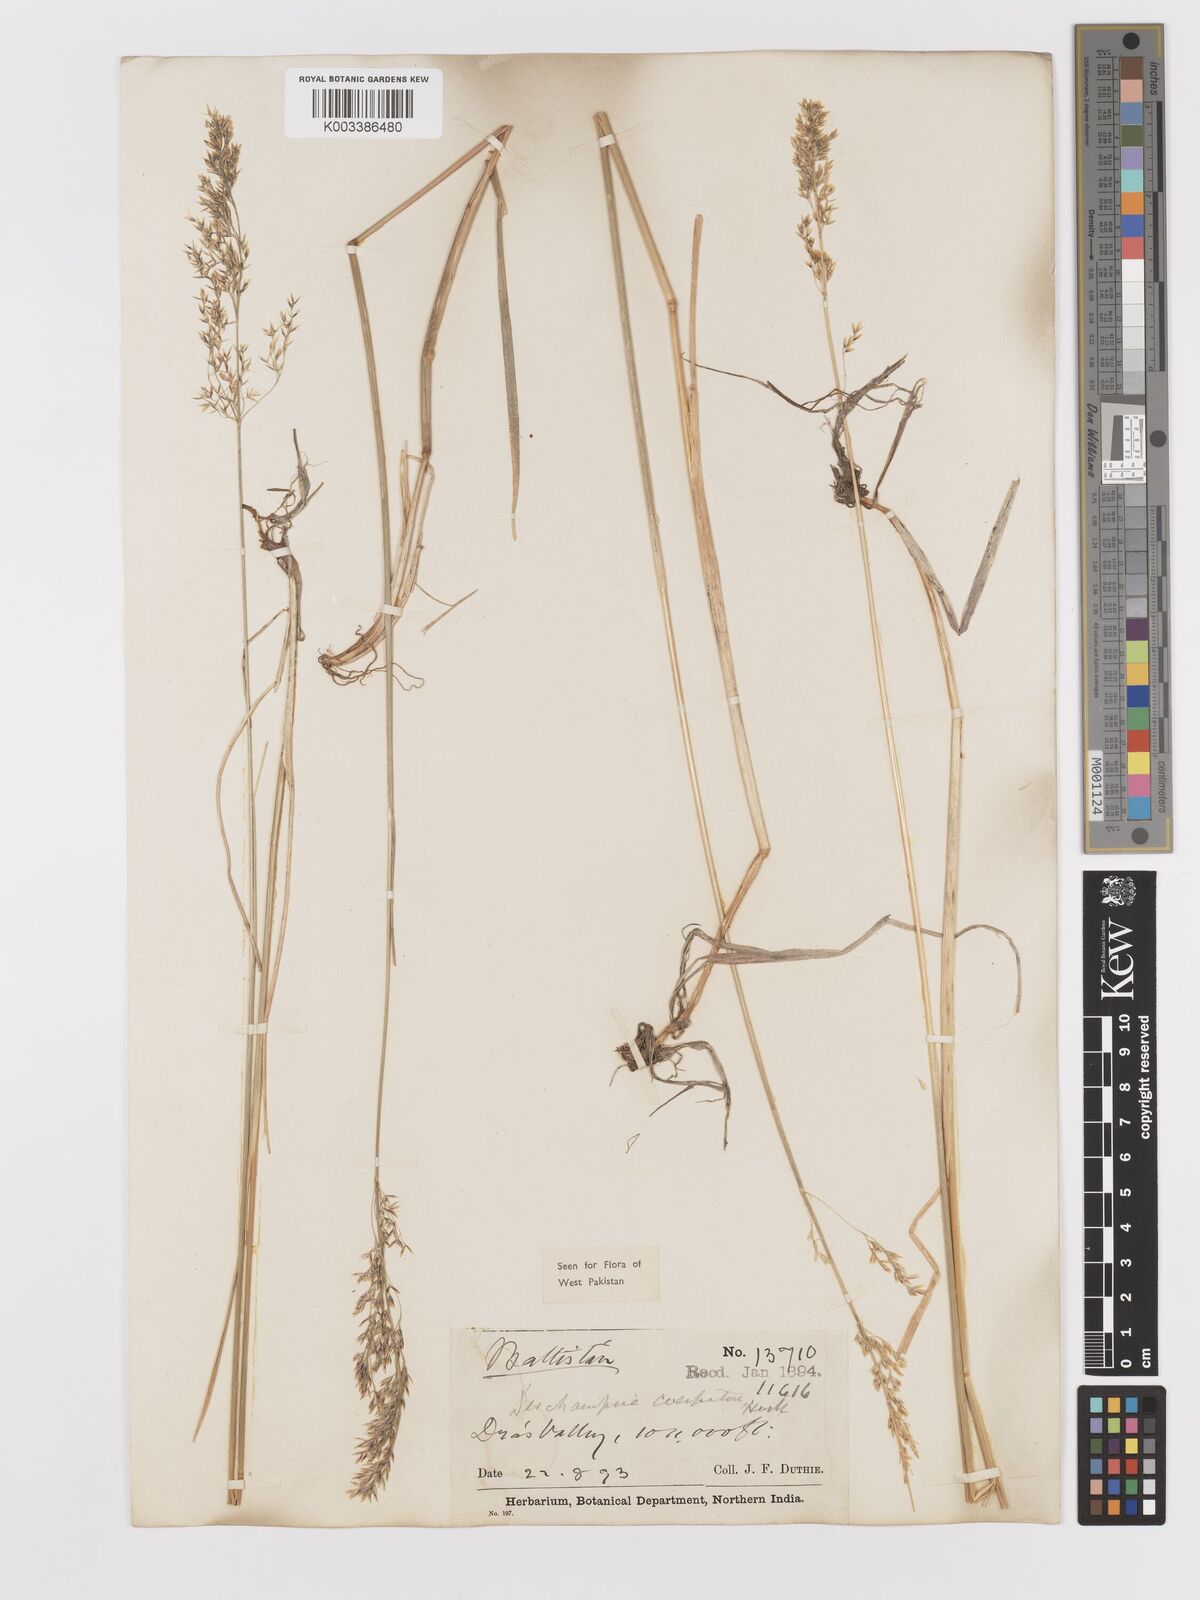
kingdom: Plantae
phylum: Tracheophyta
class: Liliopsida
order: Poales
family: Poaceae
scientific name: Poaceae
